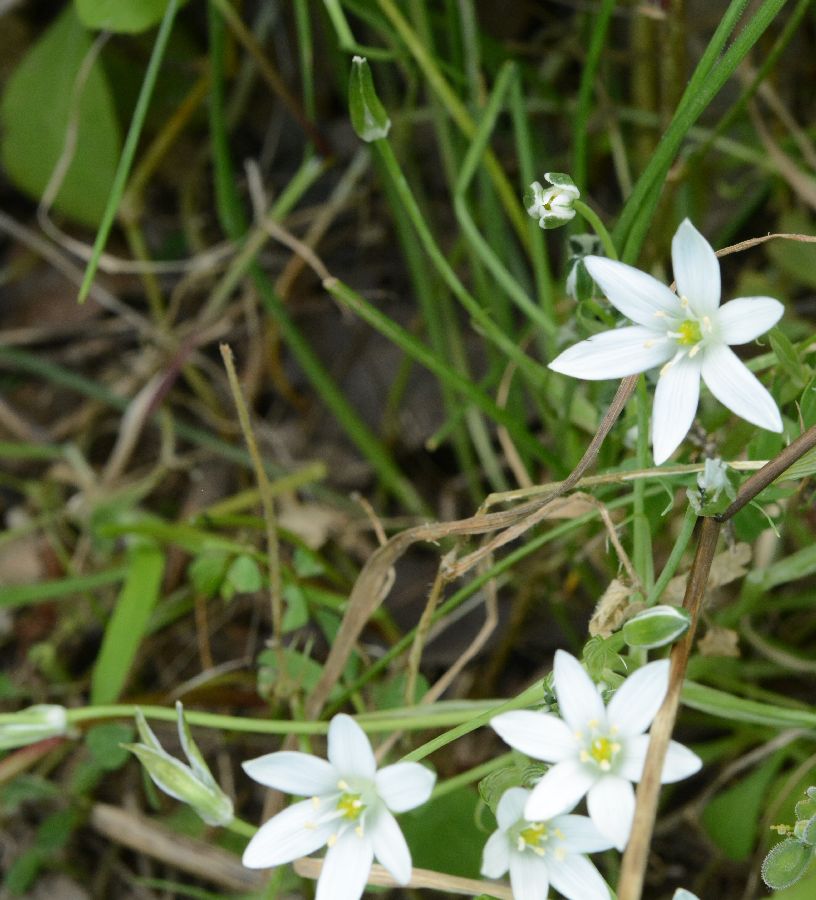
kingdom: Plantae
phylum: Tracheophyta
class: Liliopsida
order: Asparagales
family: Asparagaceae
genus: Ornithogalum
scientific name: Ornithogalum
